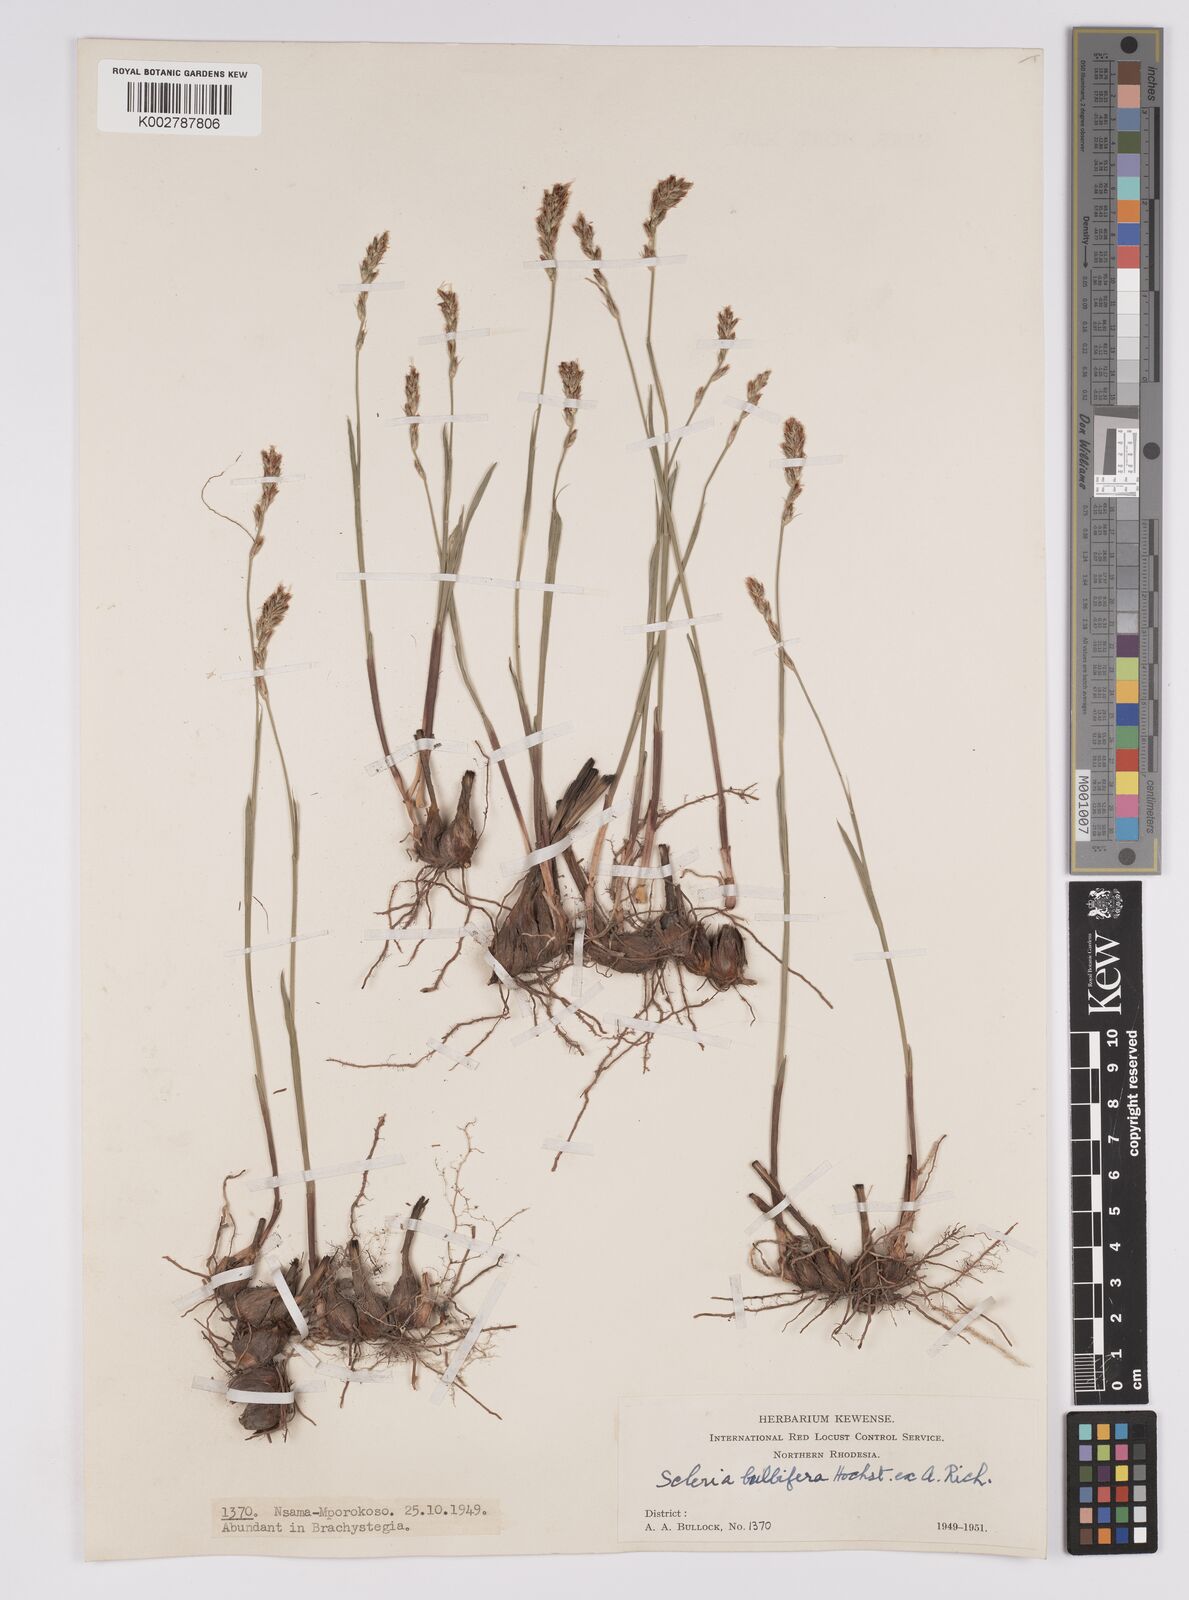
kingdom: Plantae
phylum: Tracheophyta
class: Liliopsida
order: Poales
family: Cyperaceae
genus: Scleria
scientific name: Scleria bulbifera
